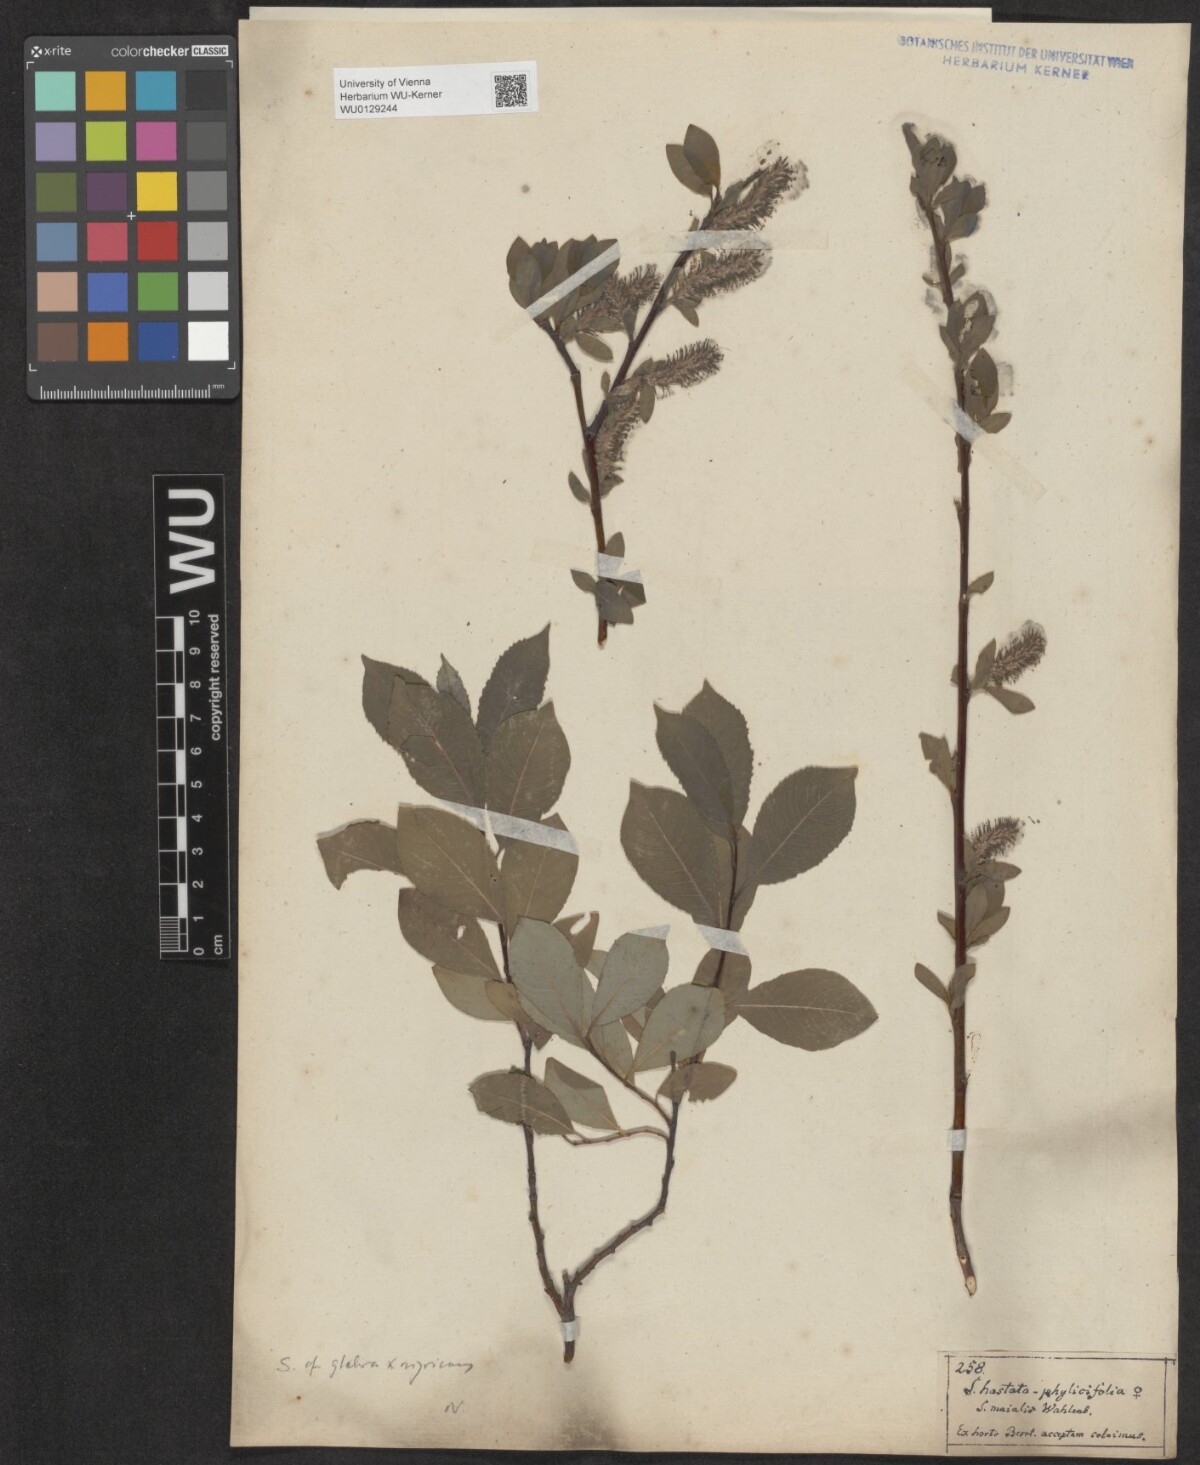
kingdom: Plantae
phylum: Tracheophyta
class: Magnoliopsida
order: Malpighiales
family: Salicaceae
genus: Salix
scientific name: Salix glabra
